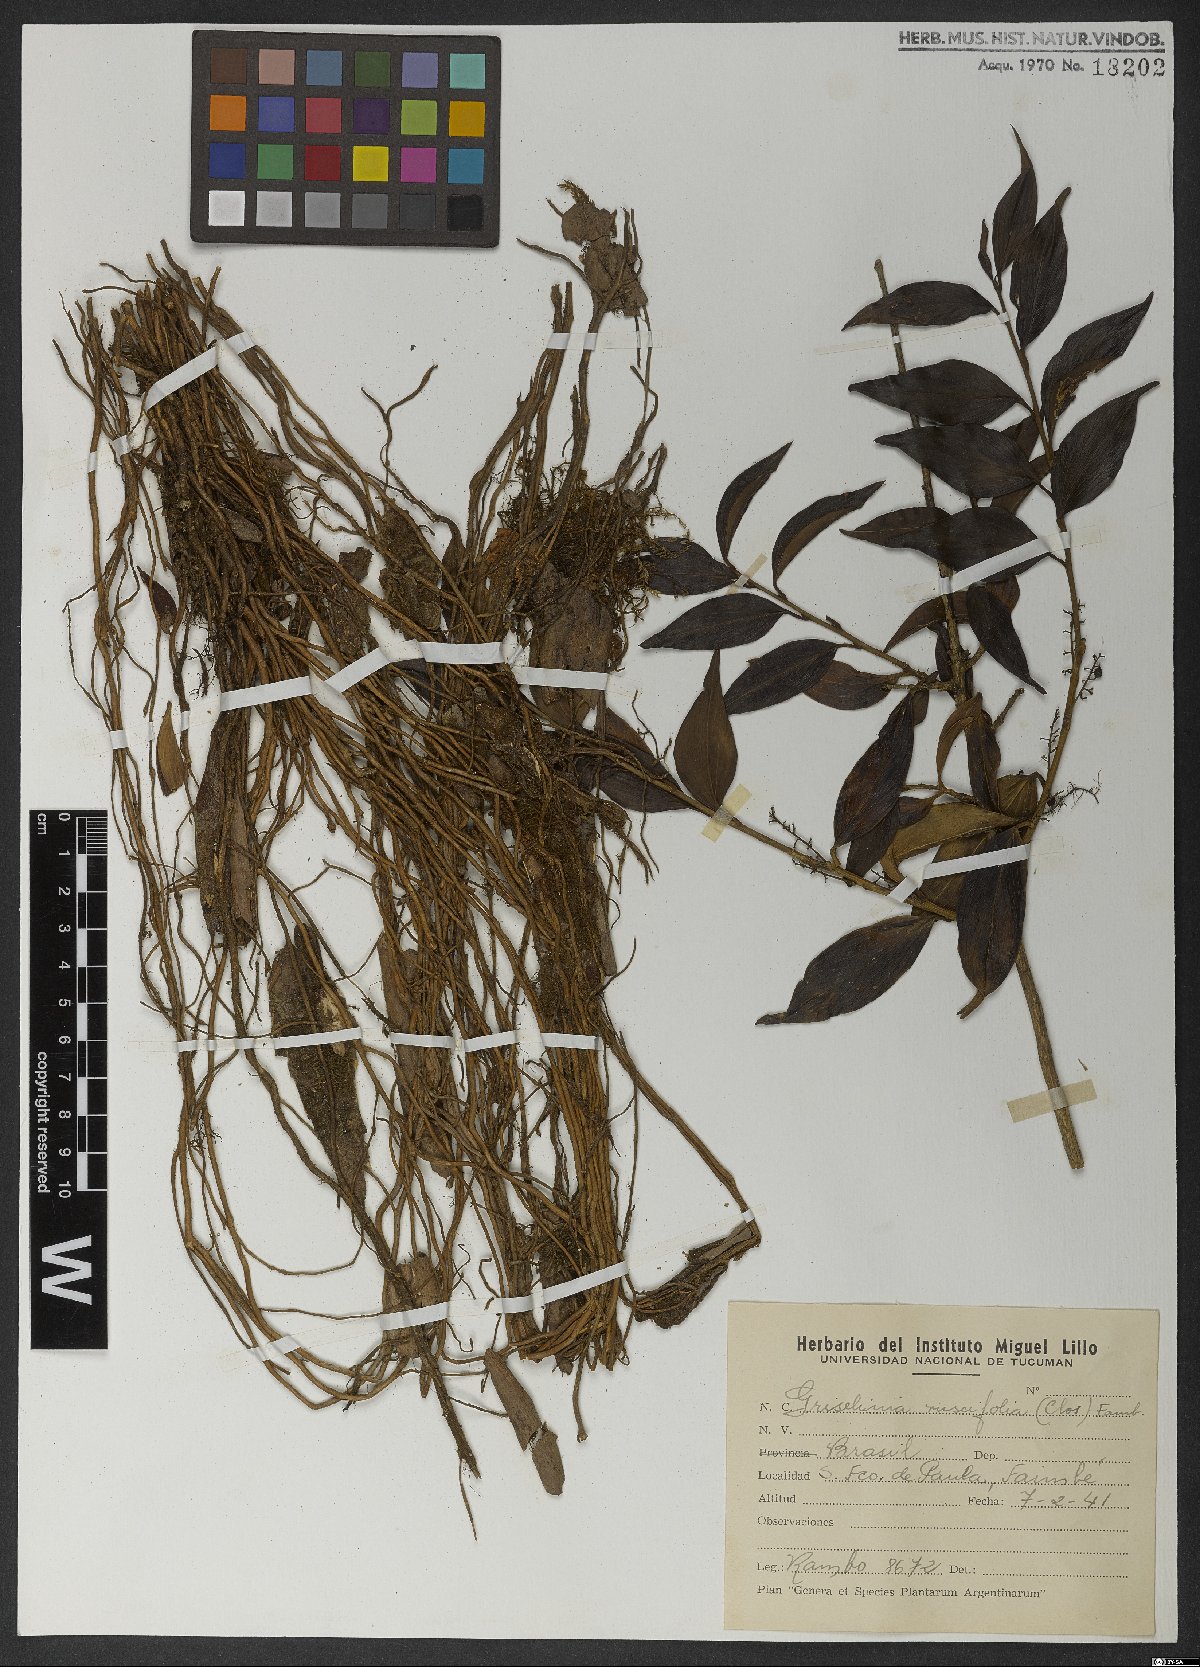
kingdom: Plantae
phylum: Tracheophyta
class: Magnoliopsida
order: Apiales
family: Griseliniaceae
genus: Griselinia
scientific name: Griselinia ruscifolia
